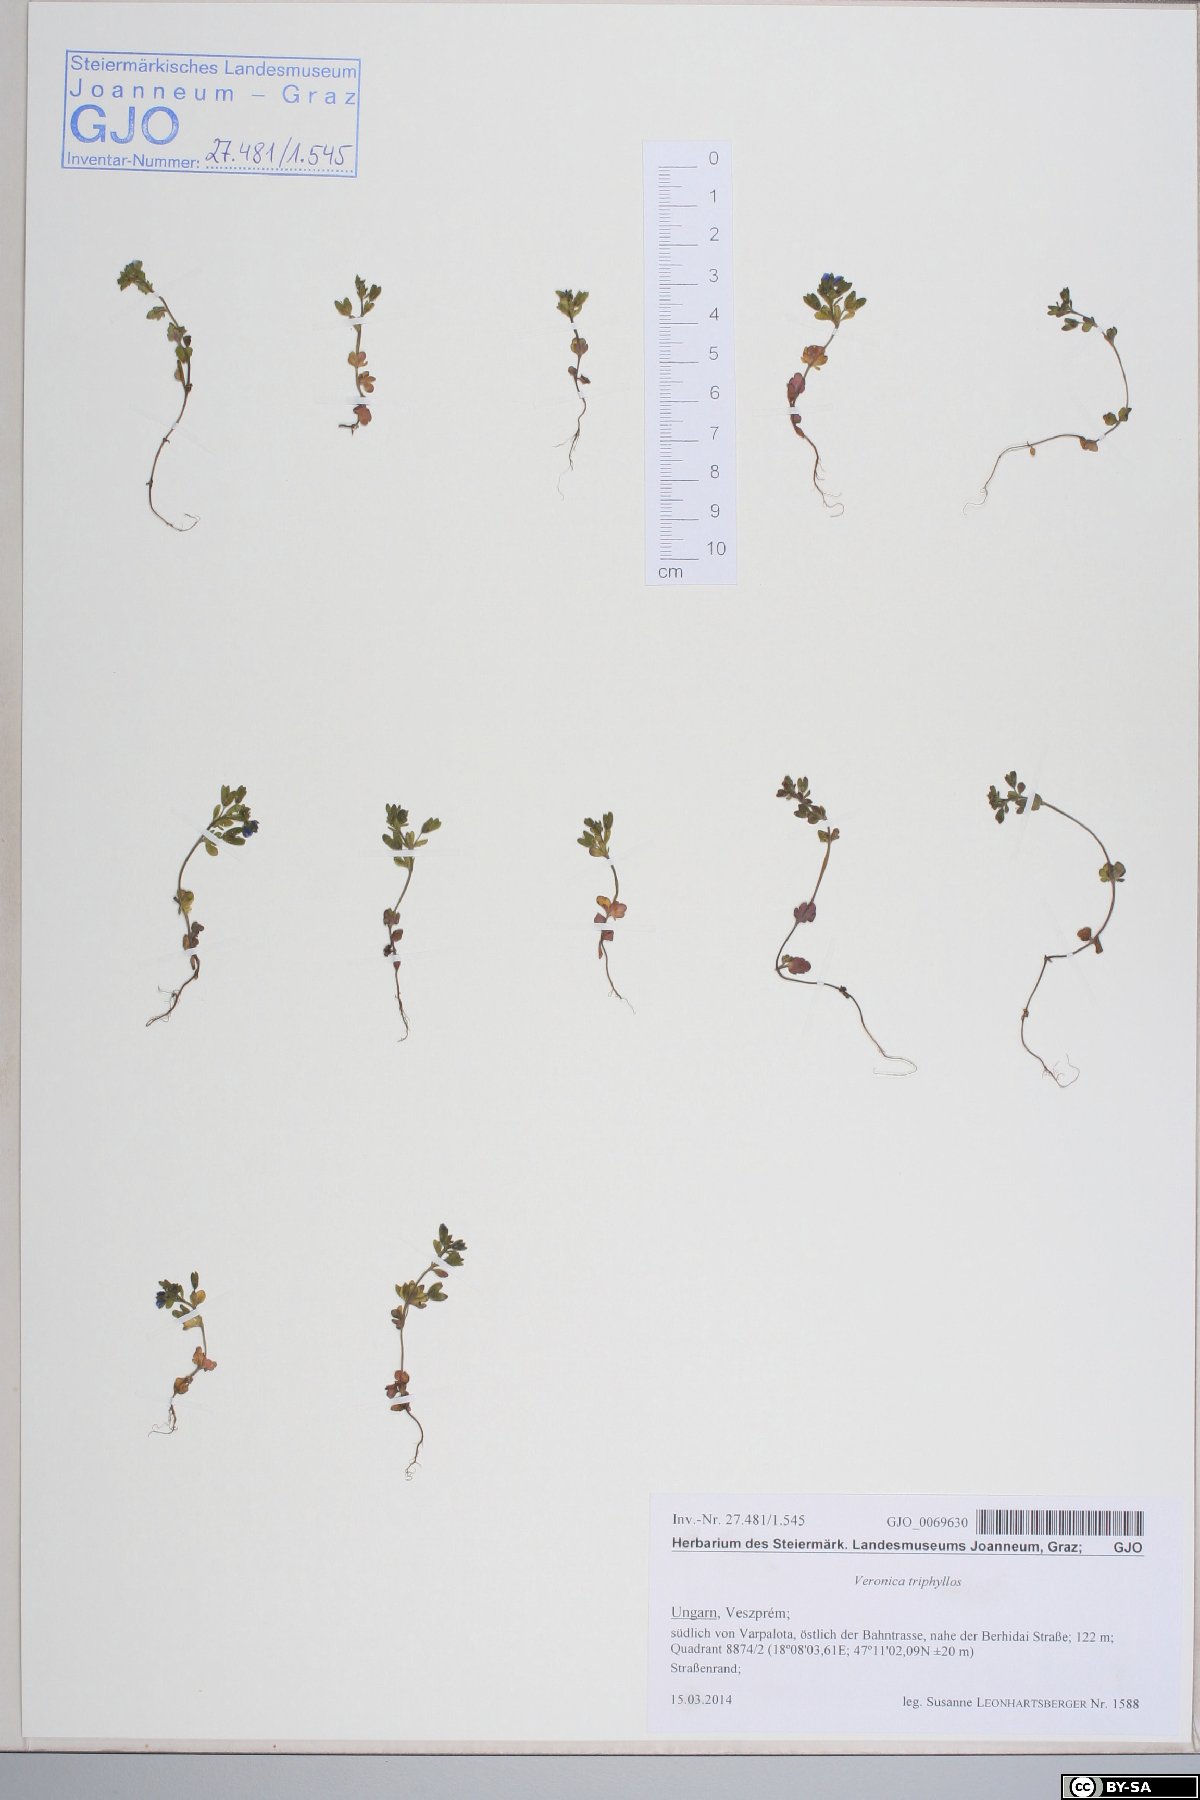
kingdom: Plantae
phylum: Tracheophyta
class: Magnoliopsida
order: Lamiales
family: Plantaginaceae
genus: Veronica
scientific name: Veronica triphyllos
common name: Fingered speedwell
